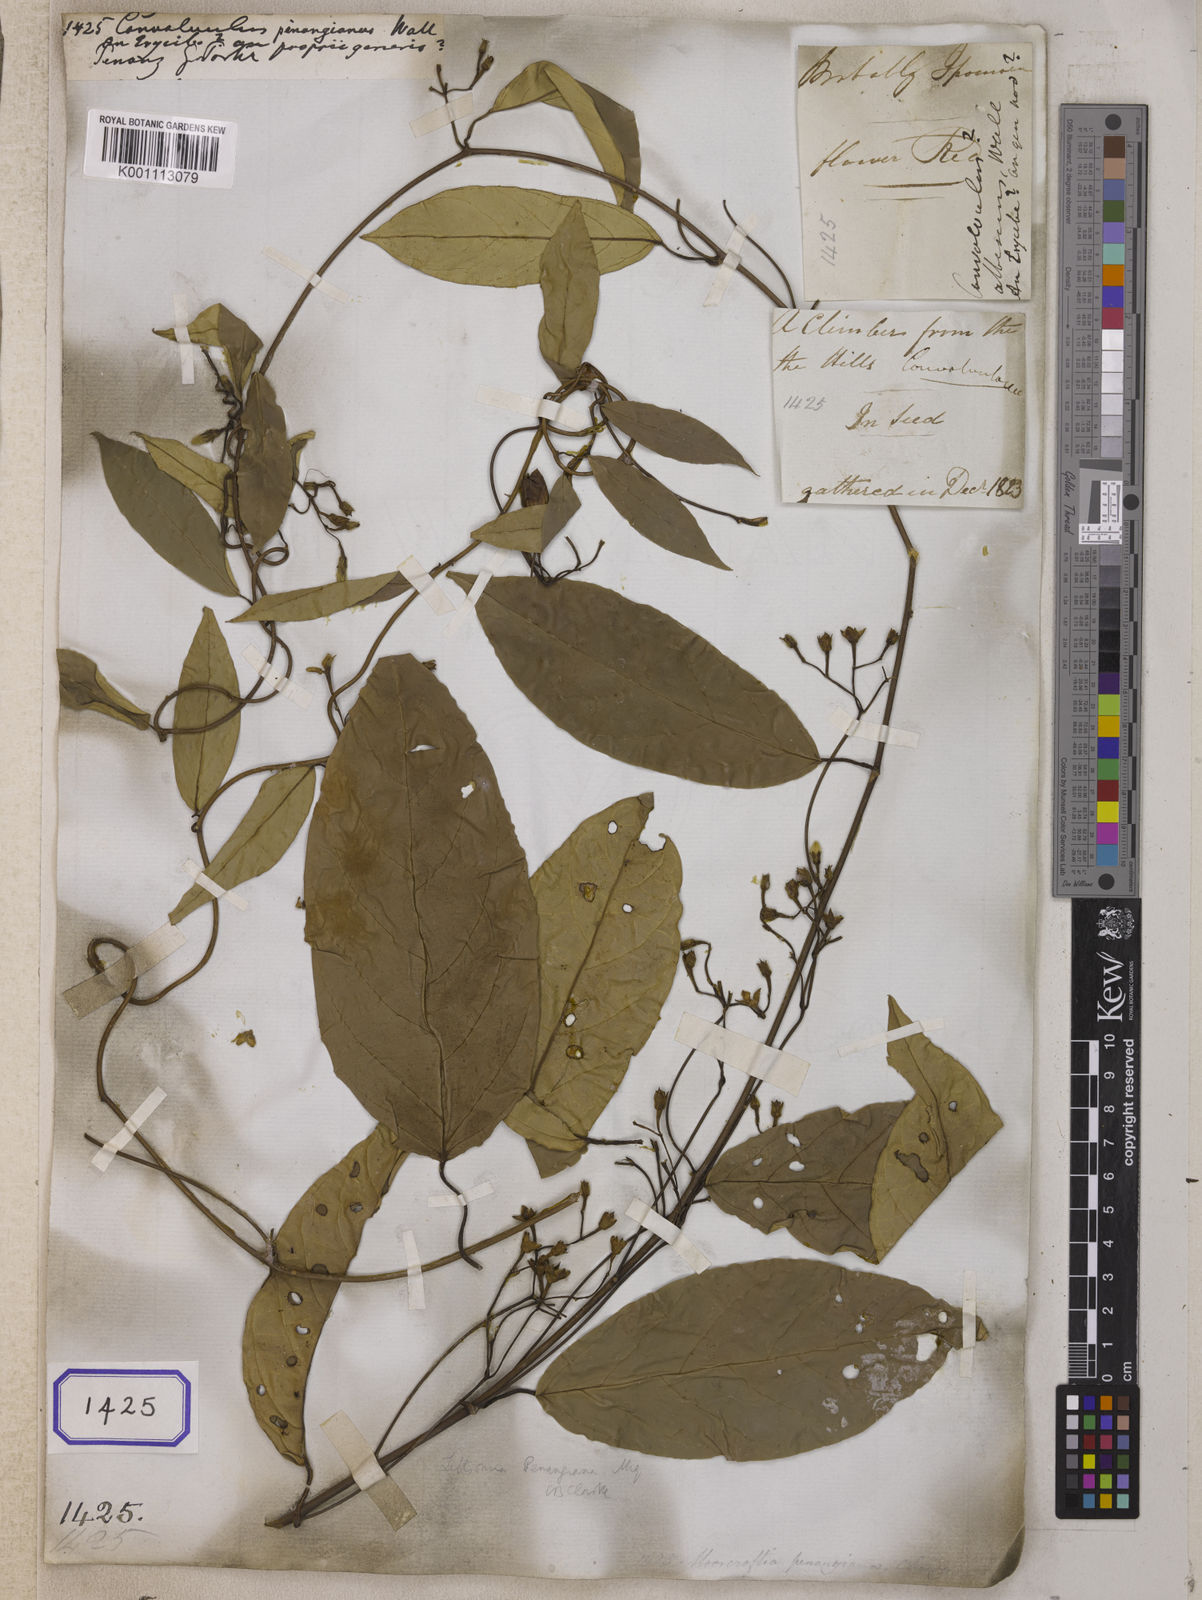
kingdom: Plantae
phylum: Tracheophyta
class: Magnoliopsida
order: Solanales
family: Convolvulaceae
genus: Argyreia
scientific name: Argyreia pinangiana
